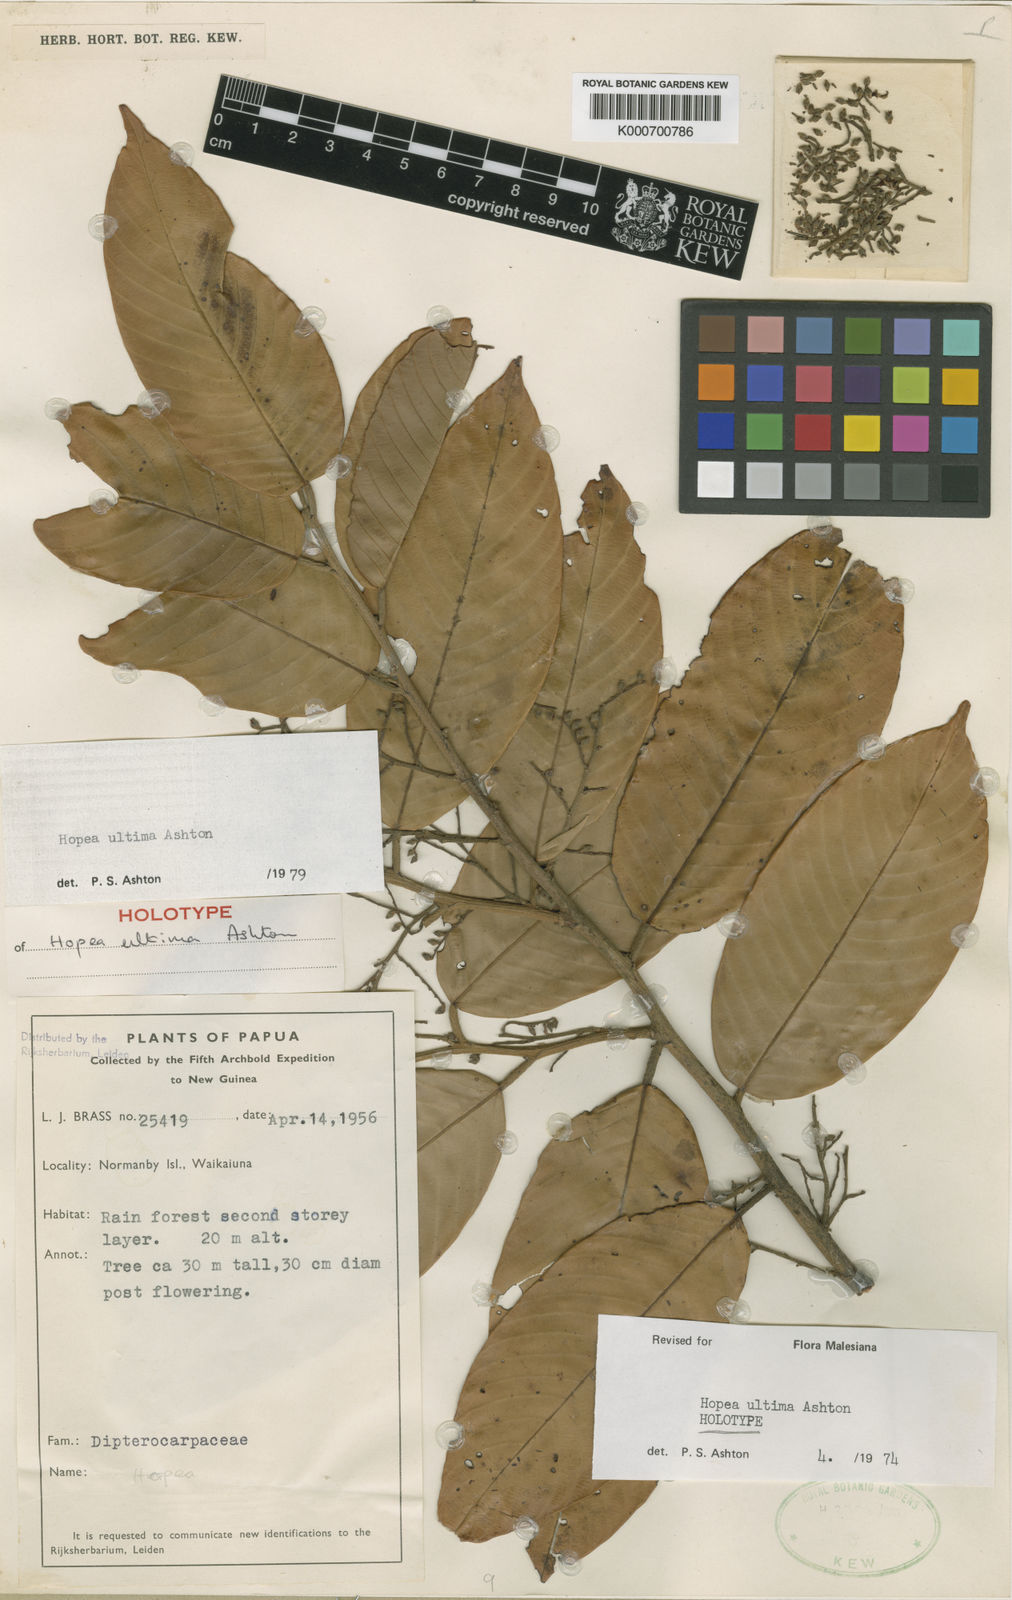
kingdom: Plantae
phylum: Tracheophyta
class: Magnoliopsida
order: Malvales
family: Dipterocarpaceae
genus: Hopea
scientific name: Hopea ultima
